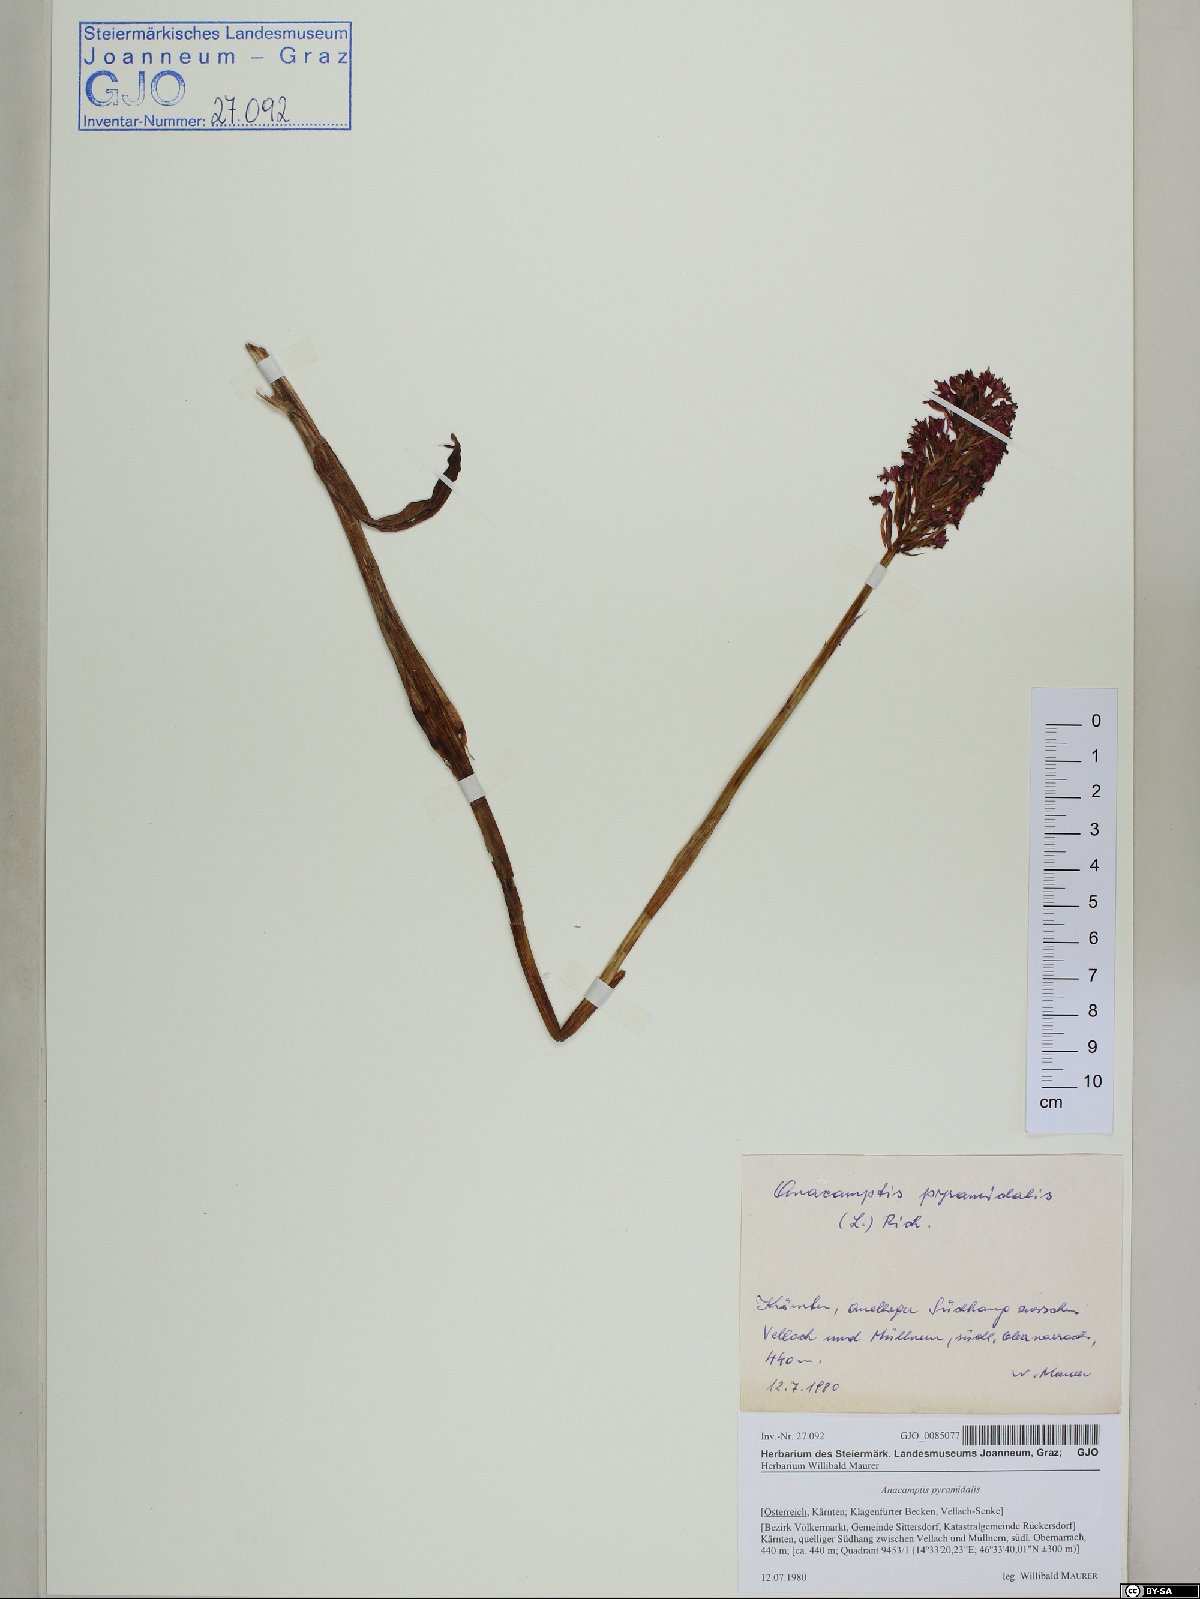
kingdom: Plantae
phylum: Tracheophyta
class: Liliopsida
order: Asparagales
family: Orchidaceae
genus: Anacamptis
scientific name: Anacamptis pyramidalis
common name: Pyramidal orchid
